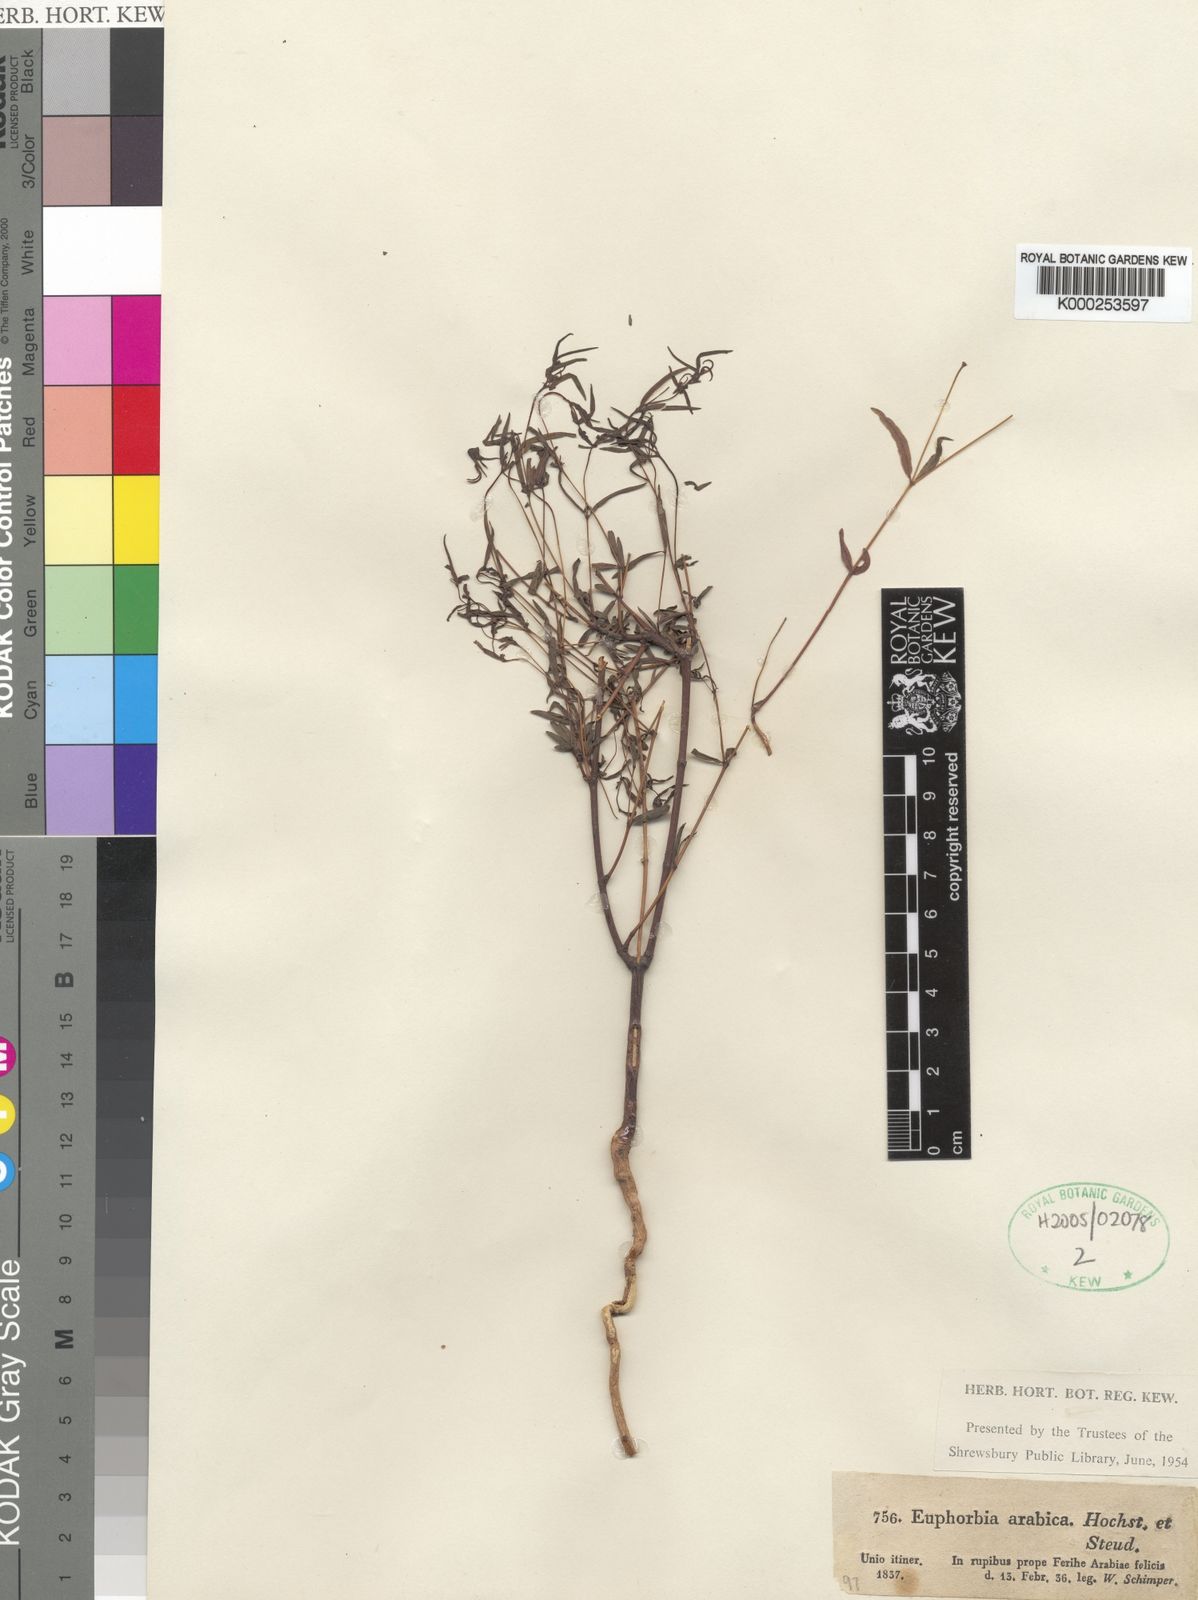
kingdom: Plantae
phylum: Tracheophyta
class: Magnoliopsida
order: Malpighiales
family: Euphorbiaceae
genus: Euphorbia
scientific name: Euphorbia arabica
